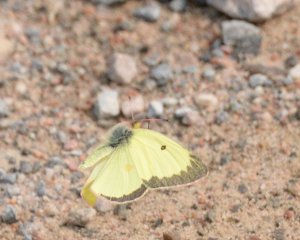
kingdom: Animalia
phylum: Arthropoda
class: Insecta
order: Lepidoptera
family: Pieridae
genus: Colias
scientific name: Colias philodice
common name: Clouded Sulphur
